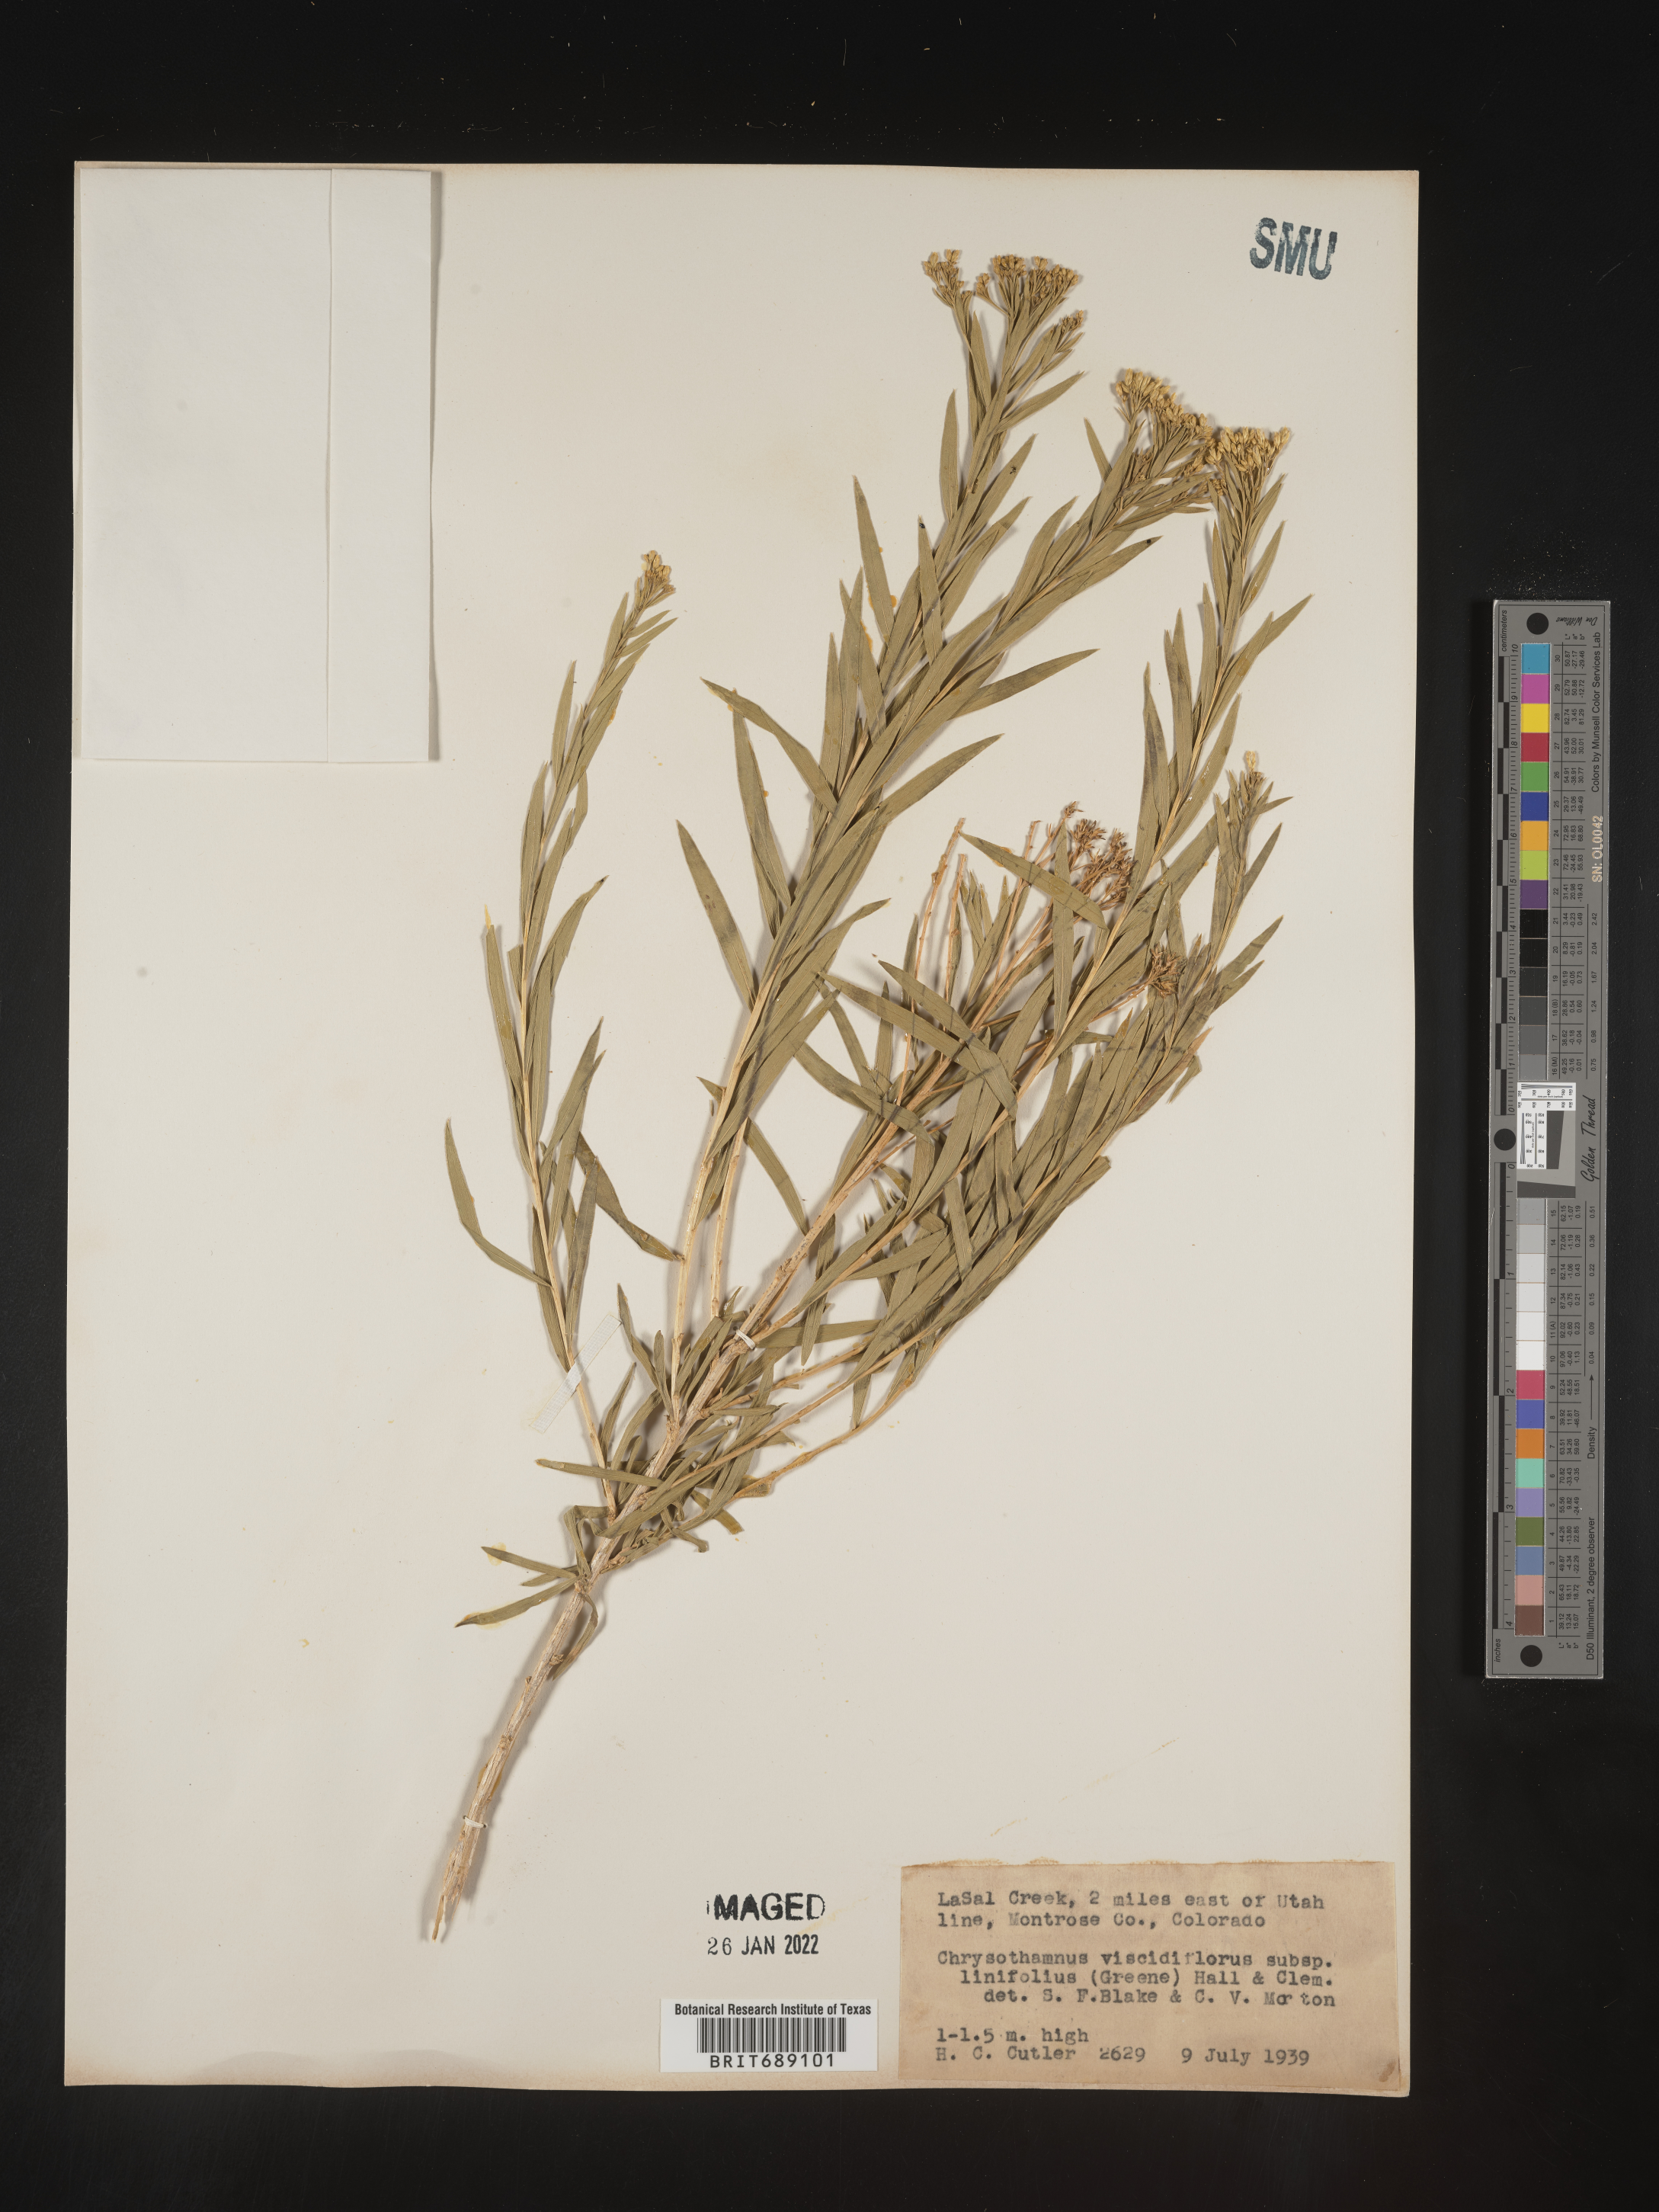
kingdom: Plantae
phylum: Tracheophyta
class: Magnoliopsida
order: Asterales
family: Asteraceae
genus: Chrysothamnus
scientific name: Chrysothamnus viscidiflorus
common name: Yellow rabbitbrush
